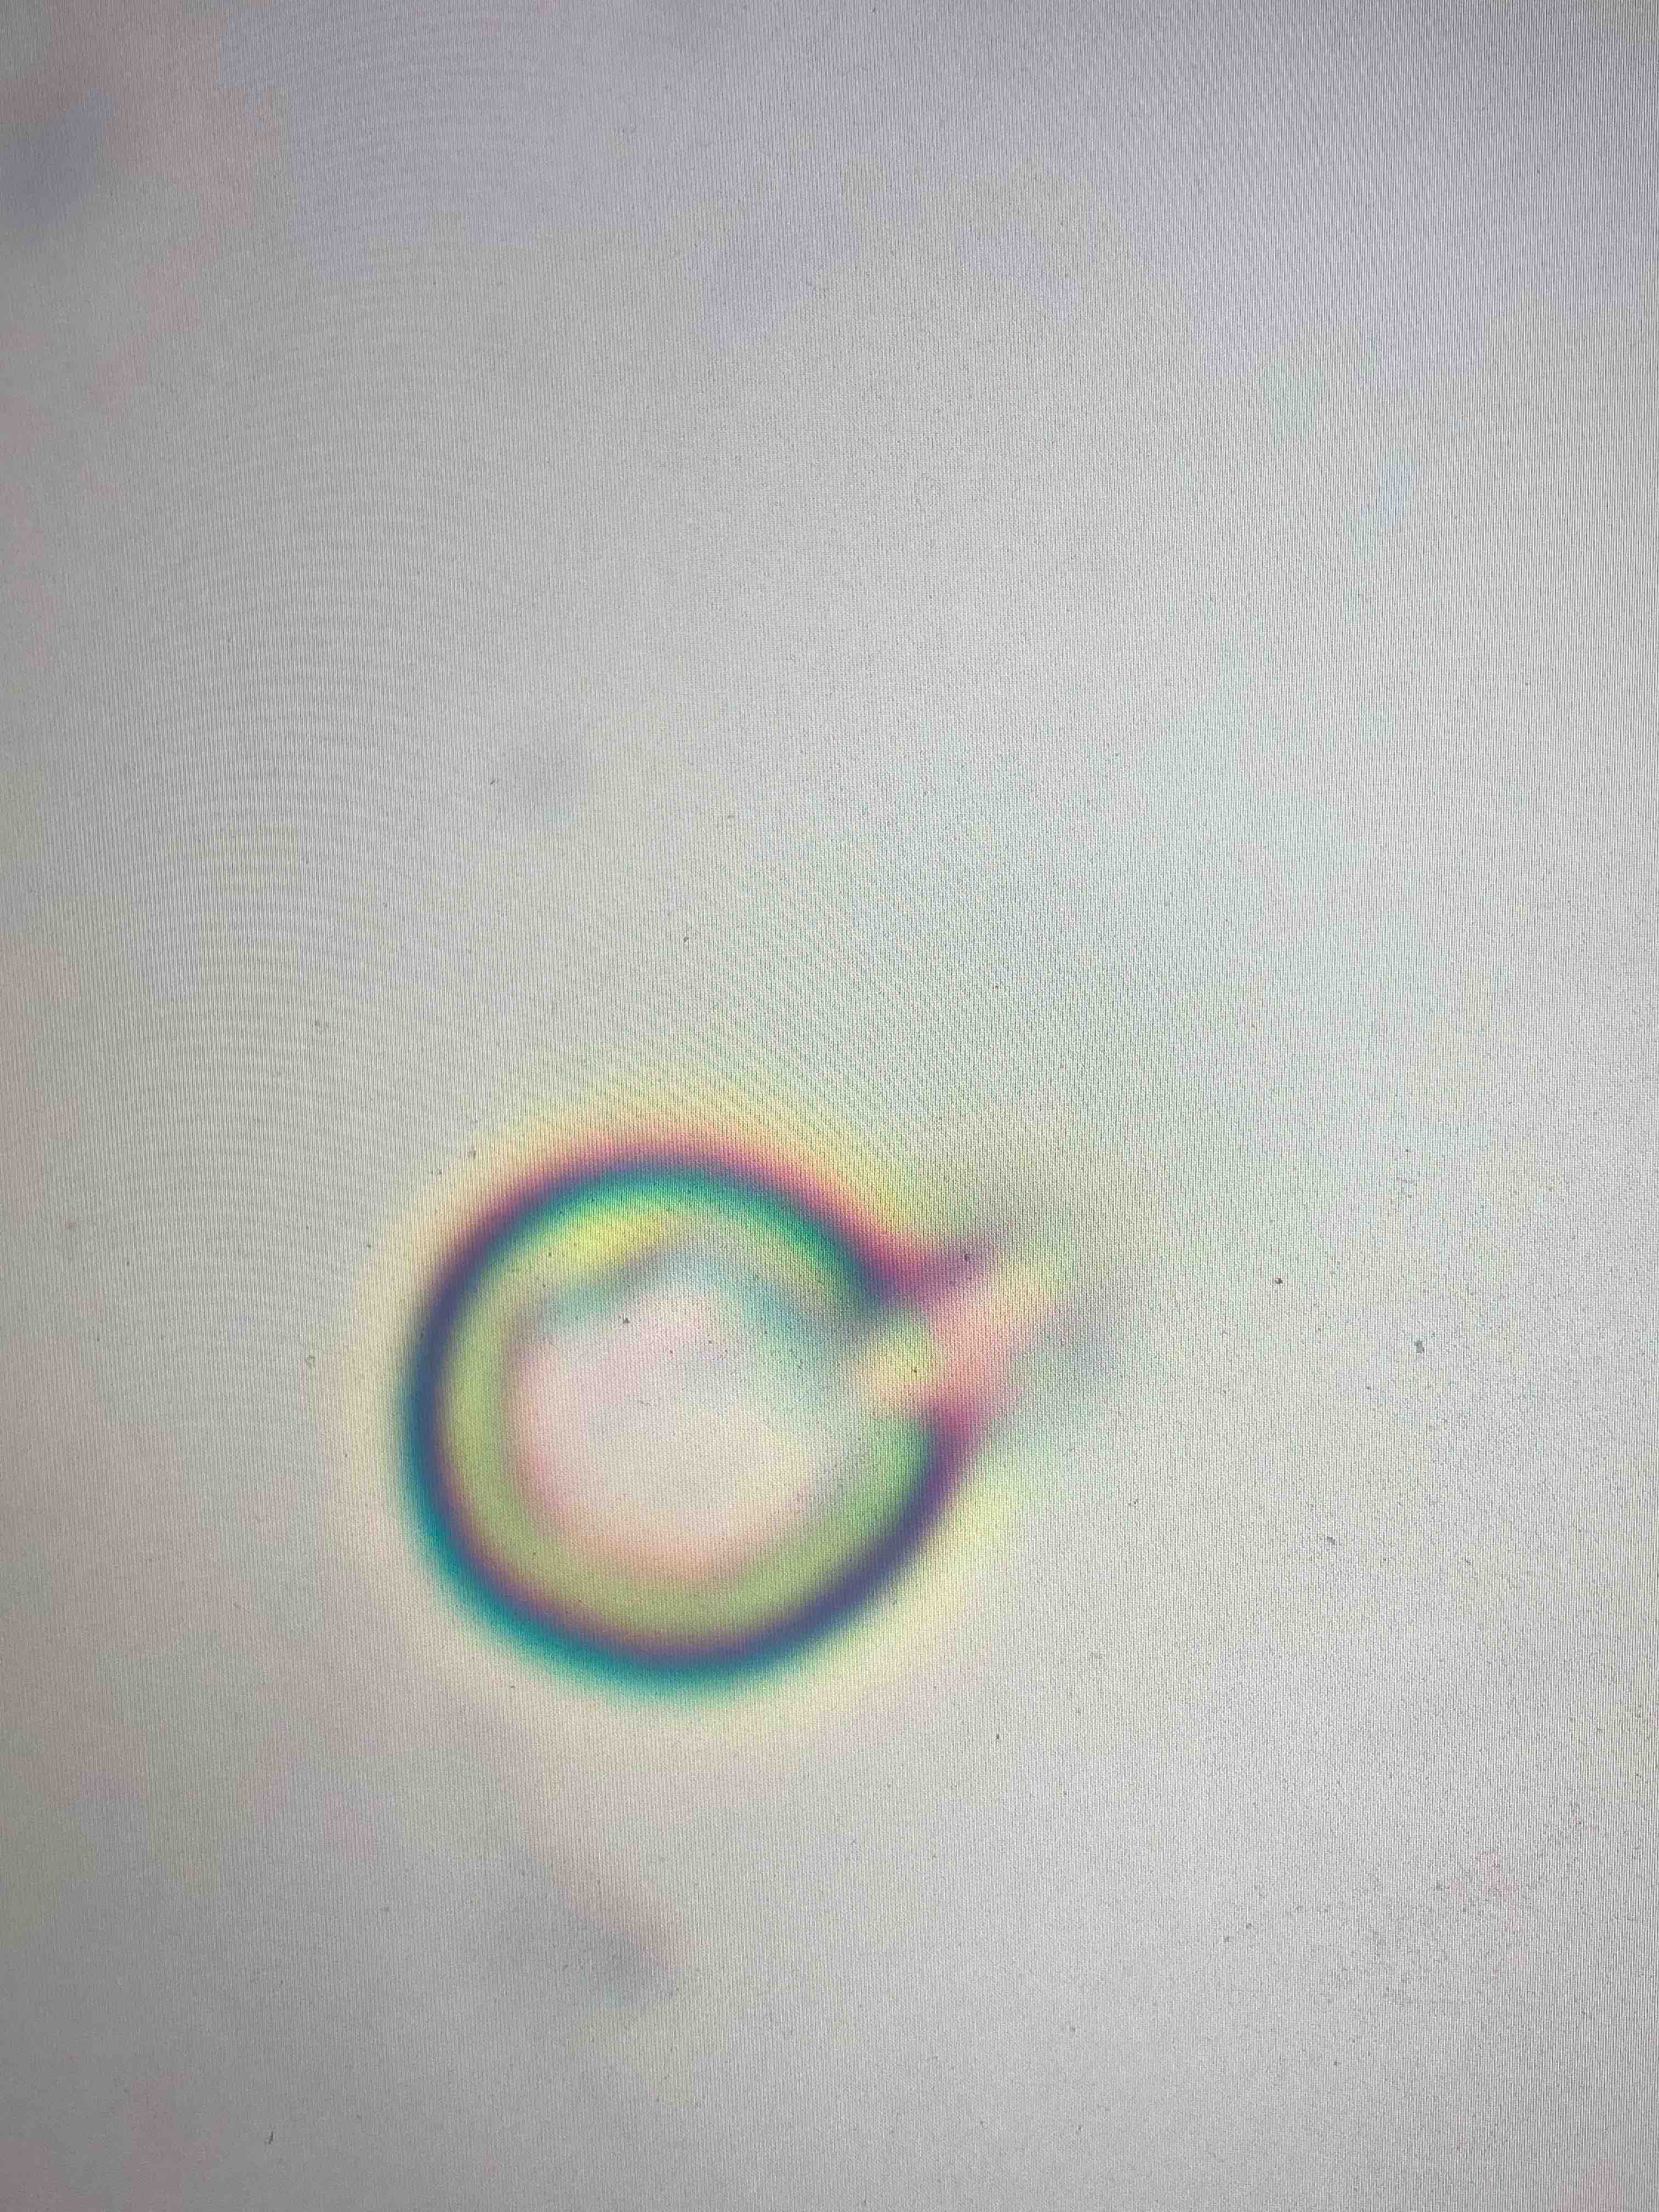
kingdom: Fungi
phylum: Basidiomycota
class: Agaricomycetes
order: Agaricales
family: Lycoperdaceae
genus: Lycoperdon
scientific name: Lycoperdon pratense
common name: flad støvbold
